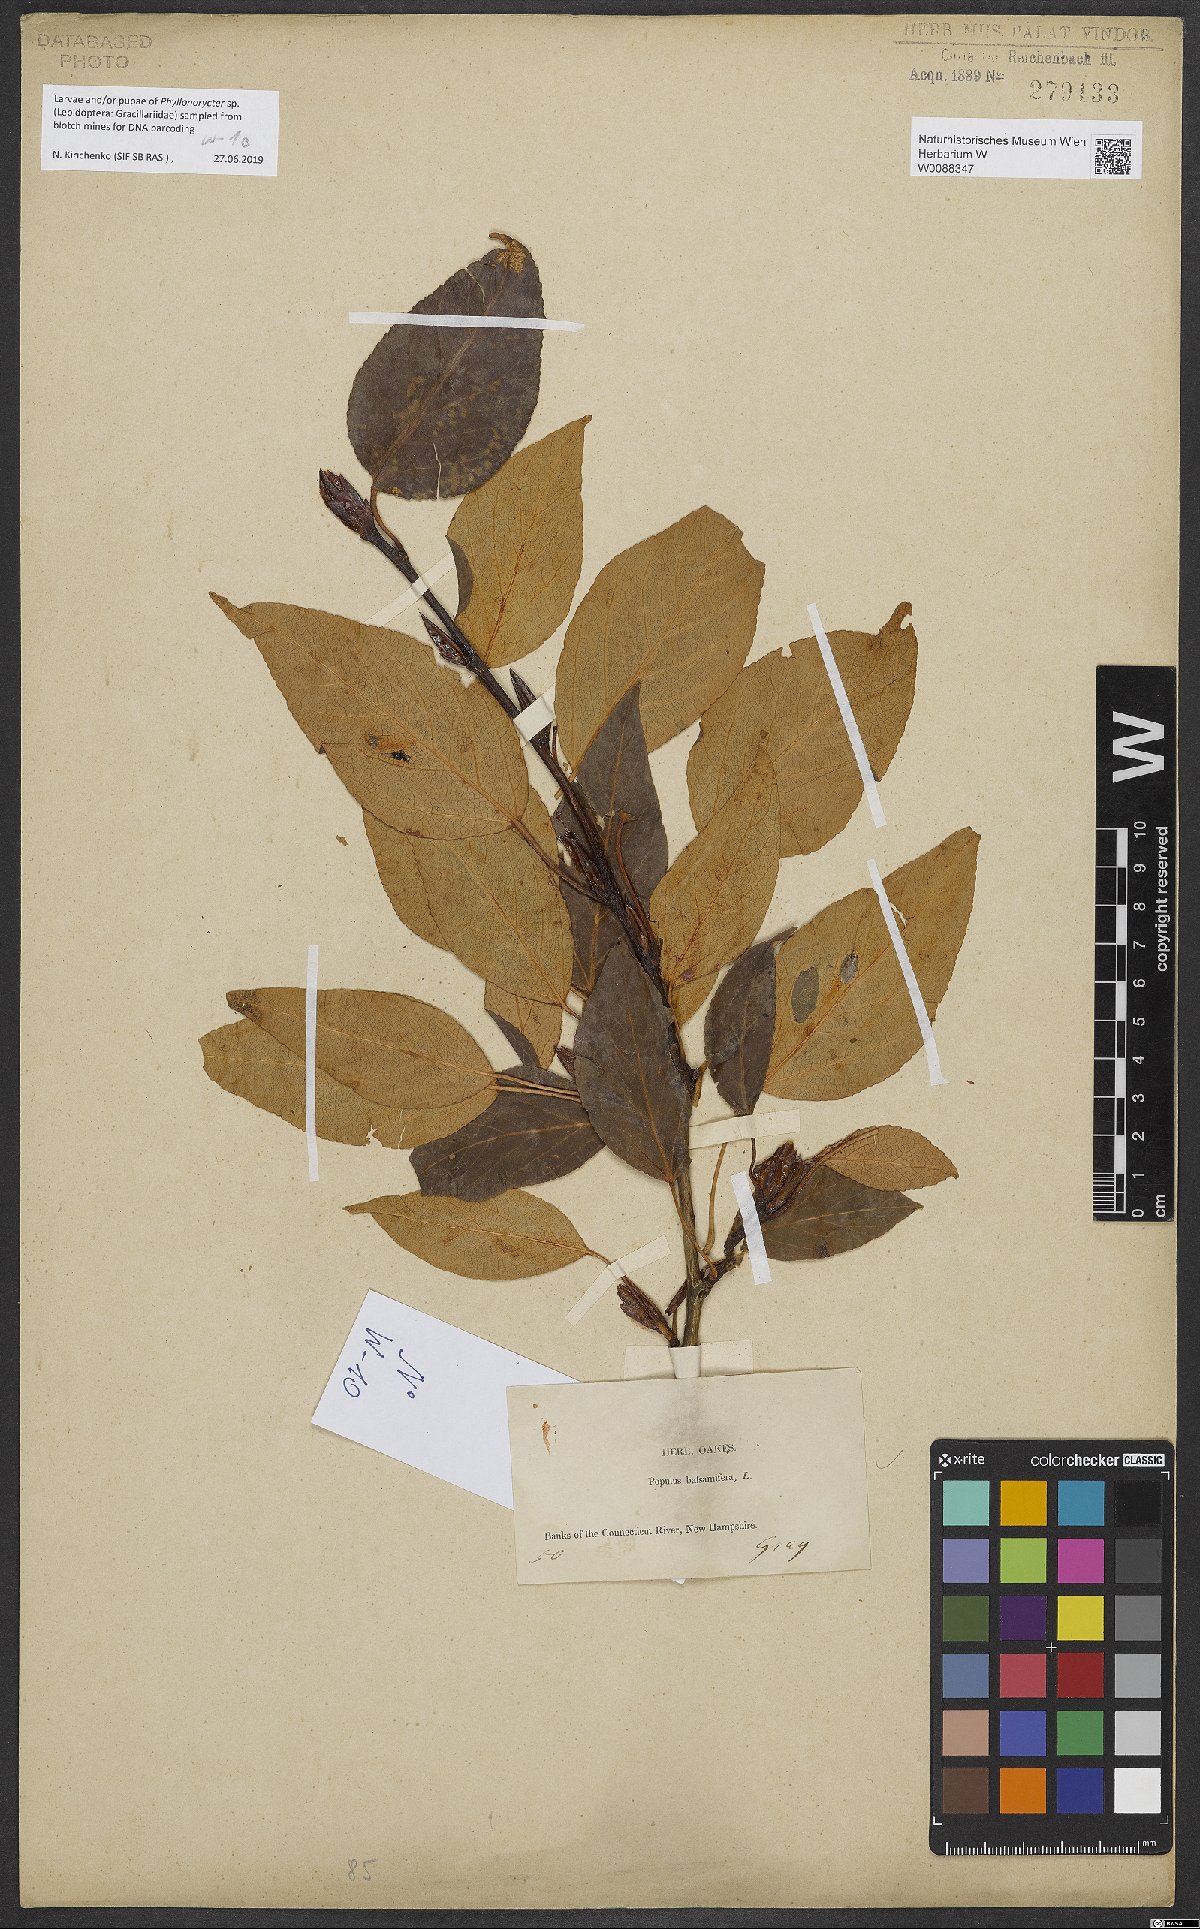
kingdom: Plantae
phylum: Tracheophyta
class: Magnoliopsida
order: Malpighiales
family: Salicaceae
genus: Populus
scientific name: Populus balsamifera
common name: Balsam poplar
